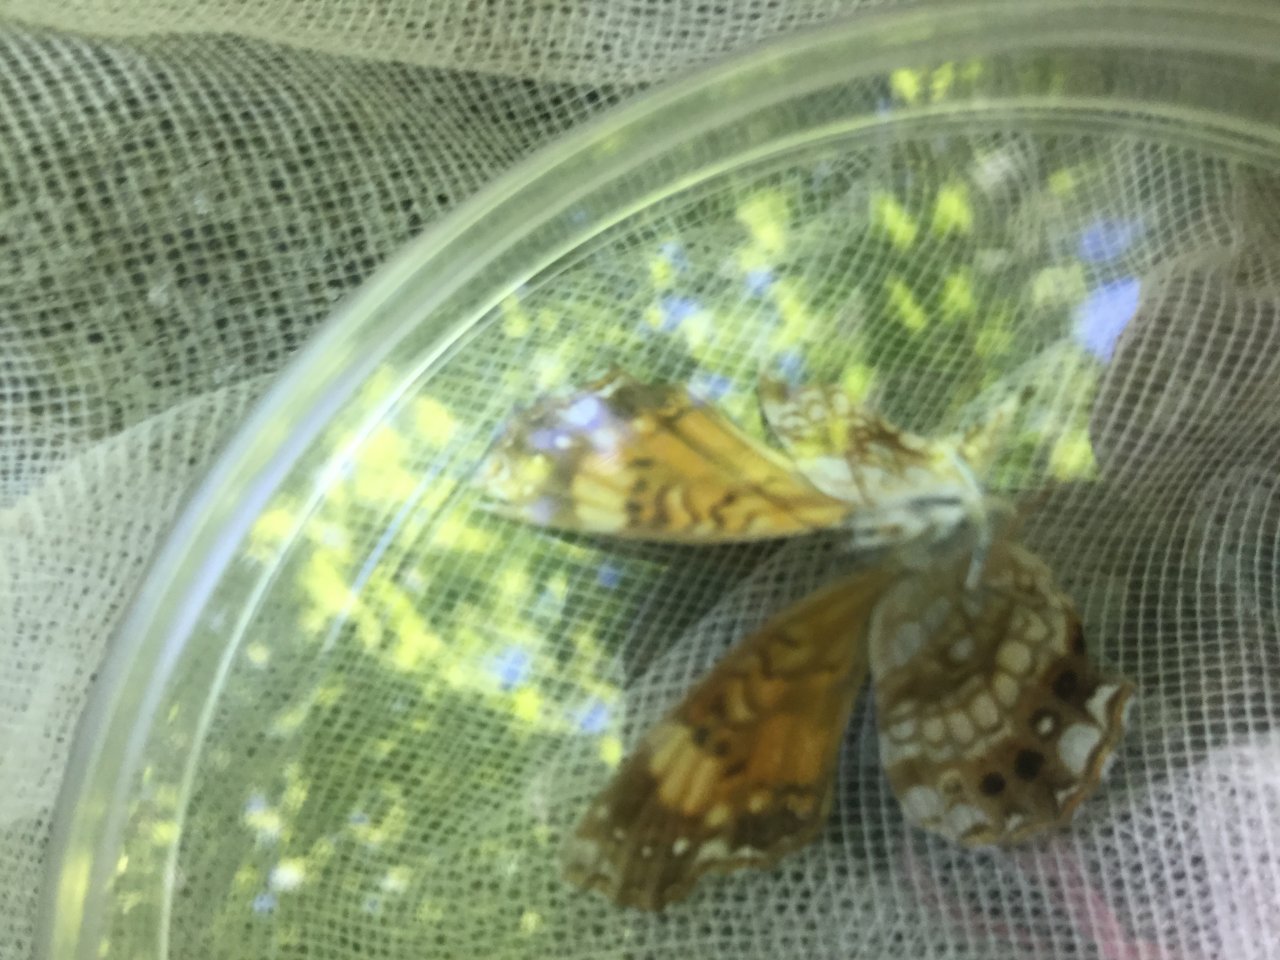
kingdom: Animalia
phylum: Arthropoda
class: Insecta
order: Lepidoptera
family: Nymphalidae
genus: Chlosyne
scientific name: Chlosyne nycteis
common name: Silvery Checkerspot
